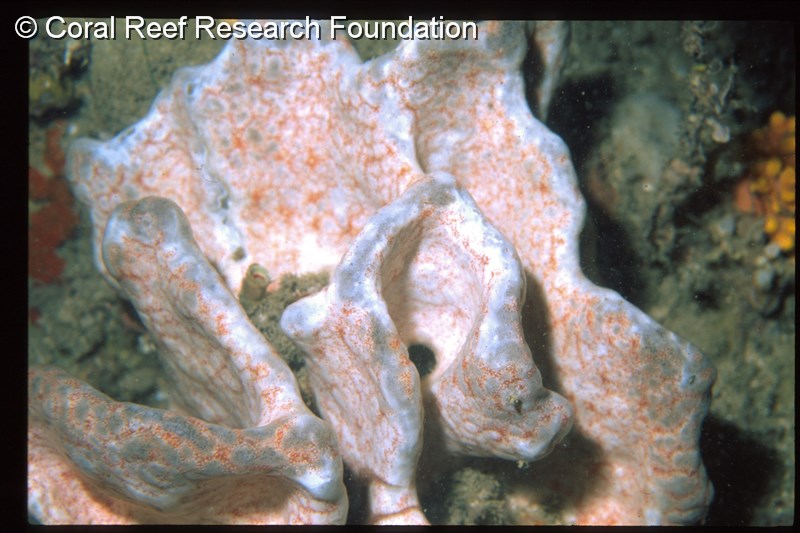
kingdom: Animalia
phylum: Chordata
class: Ascidiacea
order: Aplousobranchia
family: Didemnidae
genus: Polysyncraton
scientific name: Polysyncraton
